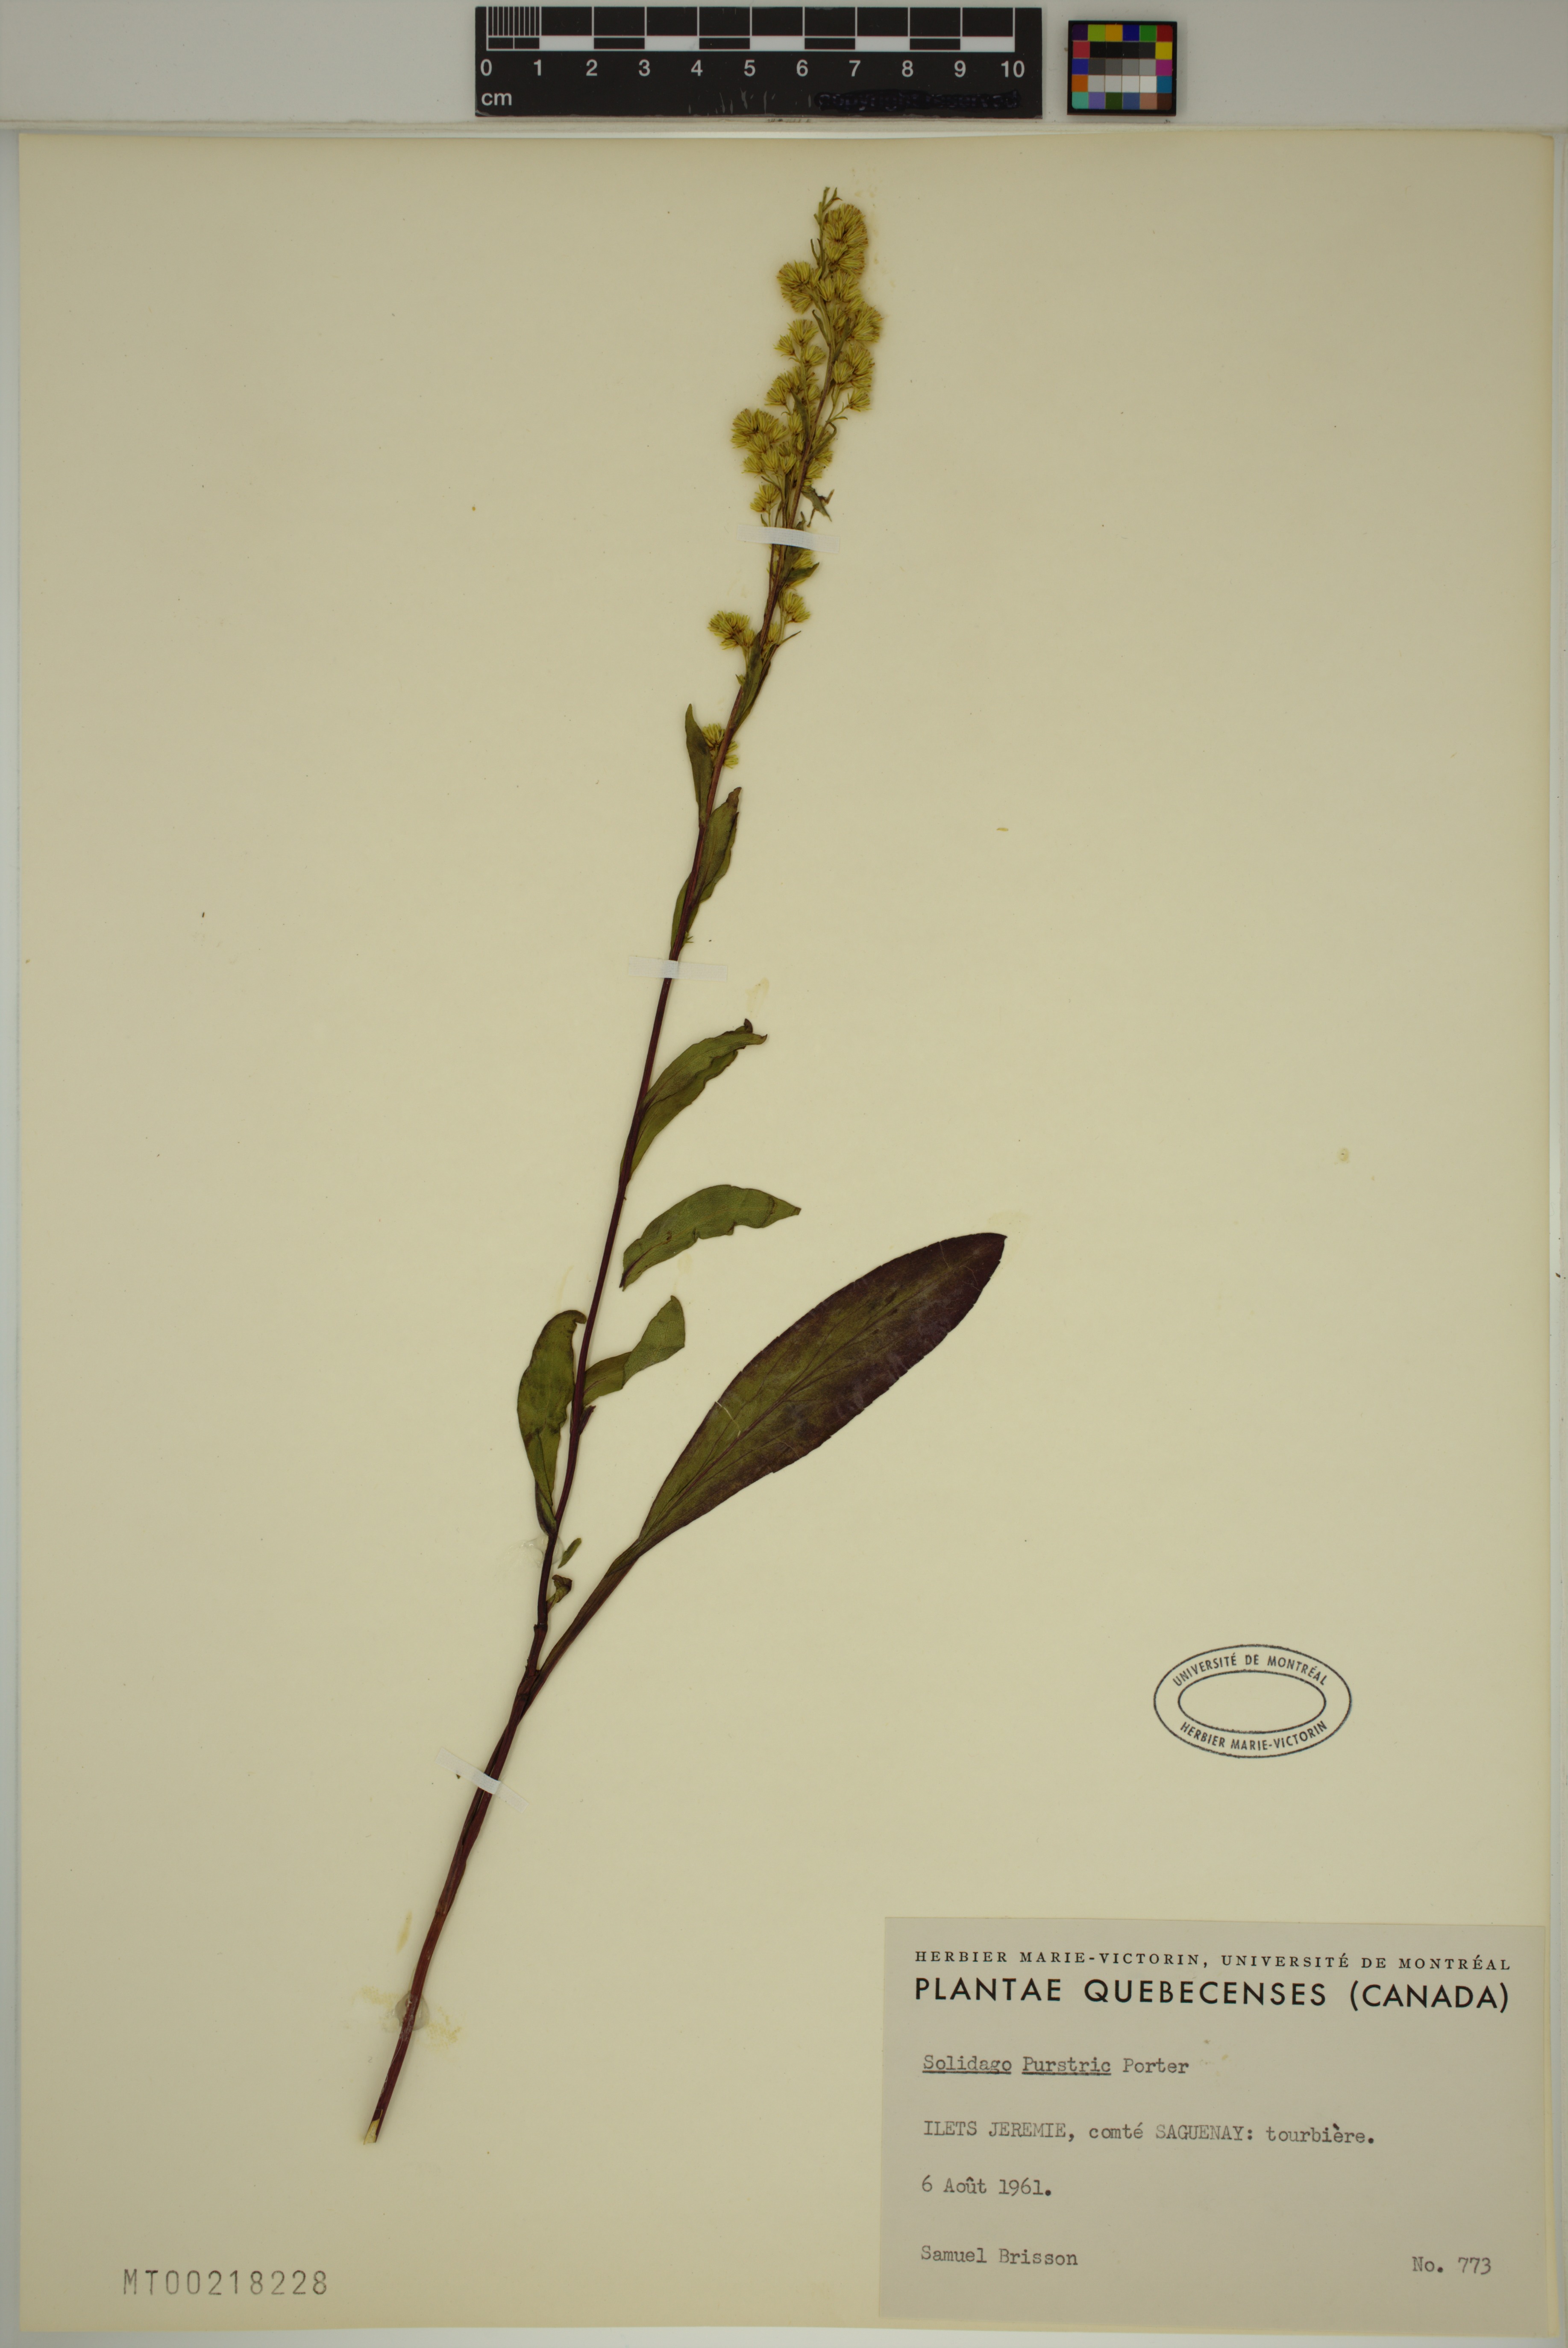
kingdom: Plantae
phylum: Tracheophyta
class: Magnoliopsida
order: Asterales
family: Asteraceae
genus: Solidago
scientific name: Solidago uliginosa
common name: Bog goldenrod
